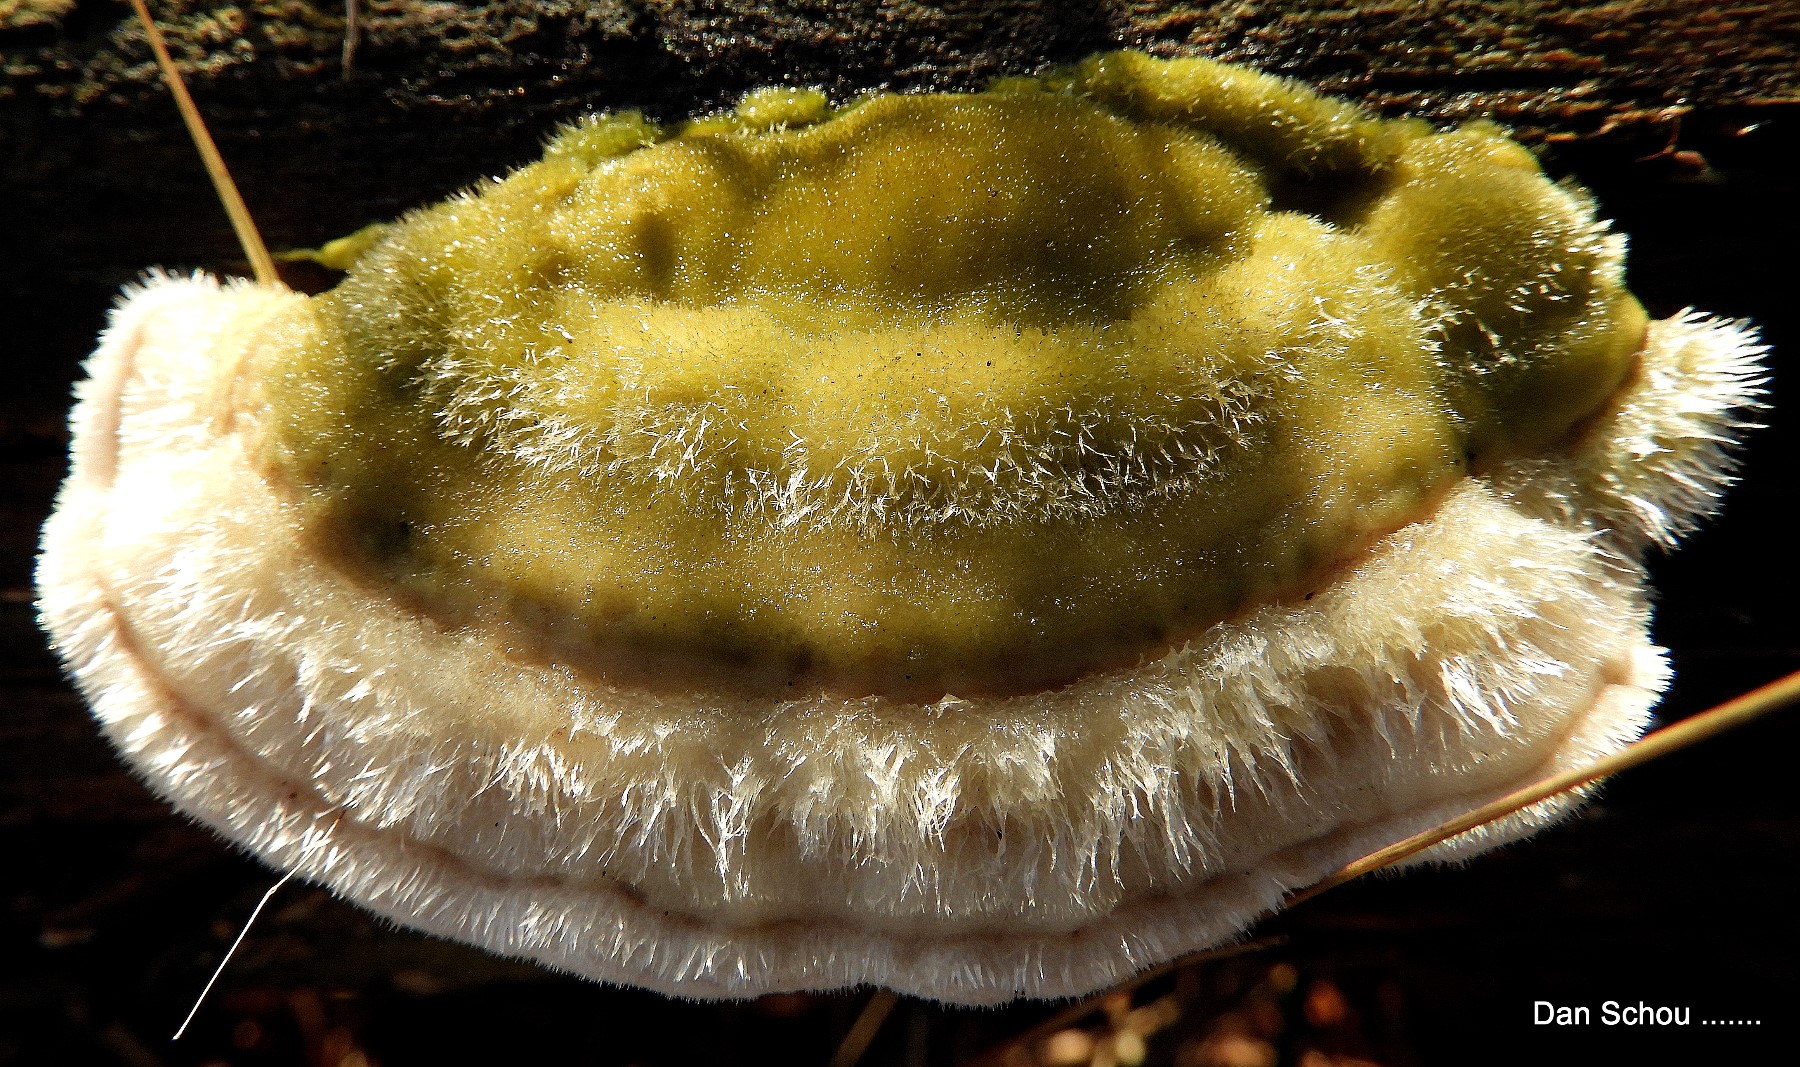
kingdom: Fungi
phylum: Basidiomycota
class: Agaricomycetes
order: Polyporales
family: Polyporaceae
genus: Trametes
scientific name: Trametes hirsuta
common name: håret læderporesvamp
